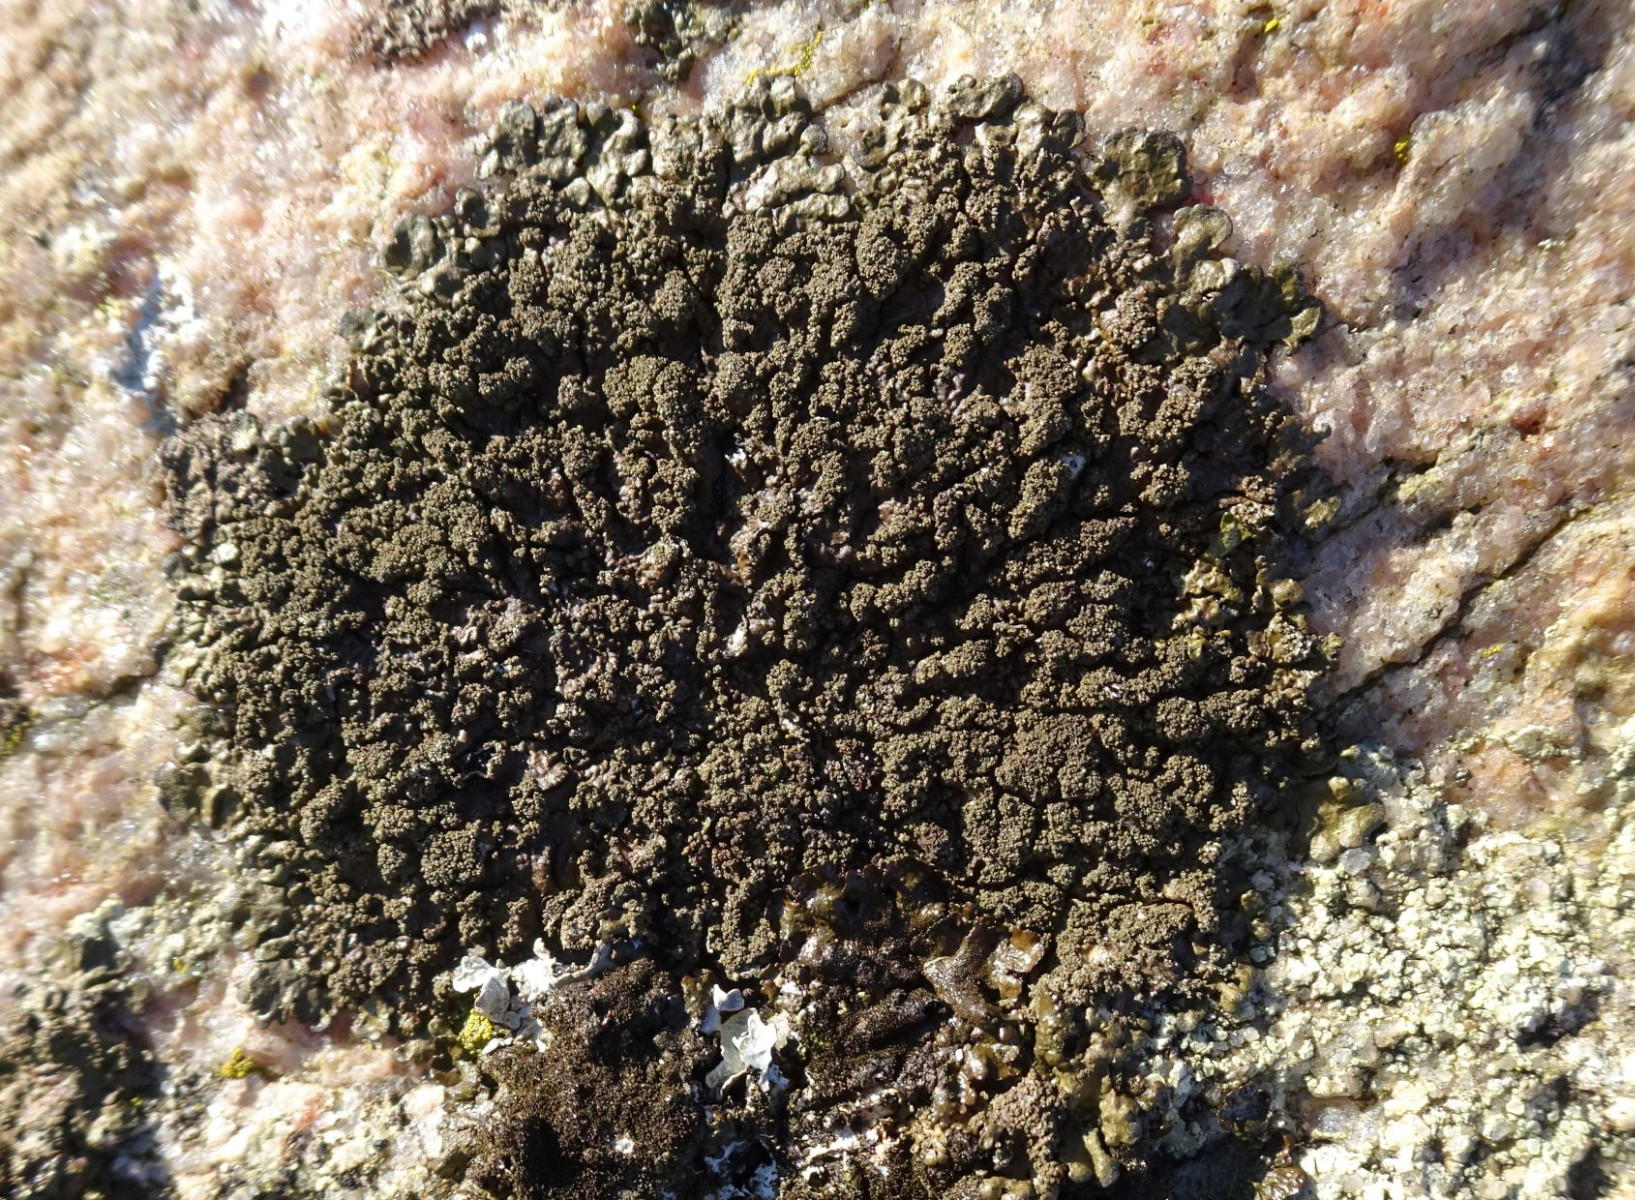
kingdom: Fungi
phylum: Ascomycota
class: Lecanoromycetes
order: Lecanorales
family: Parmeliaceae
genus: Xanthoparmelia
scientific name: Xanthoparmelia verruculifera
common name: småknoppet skållav
